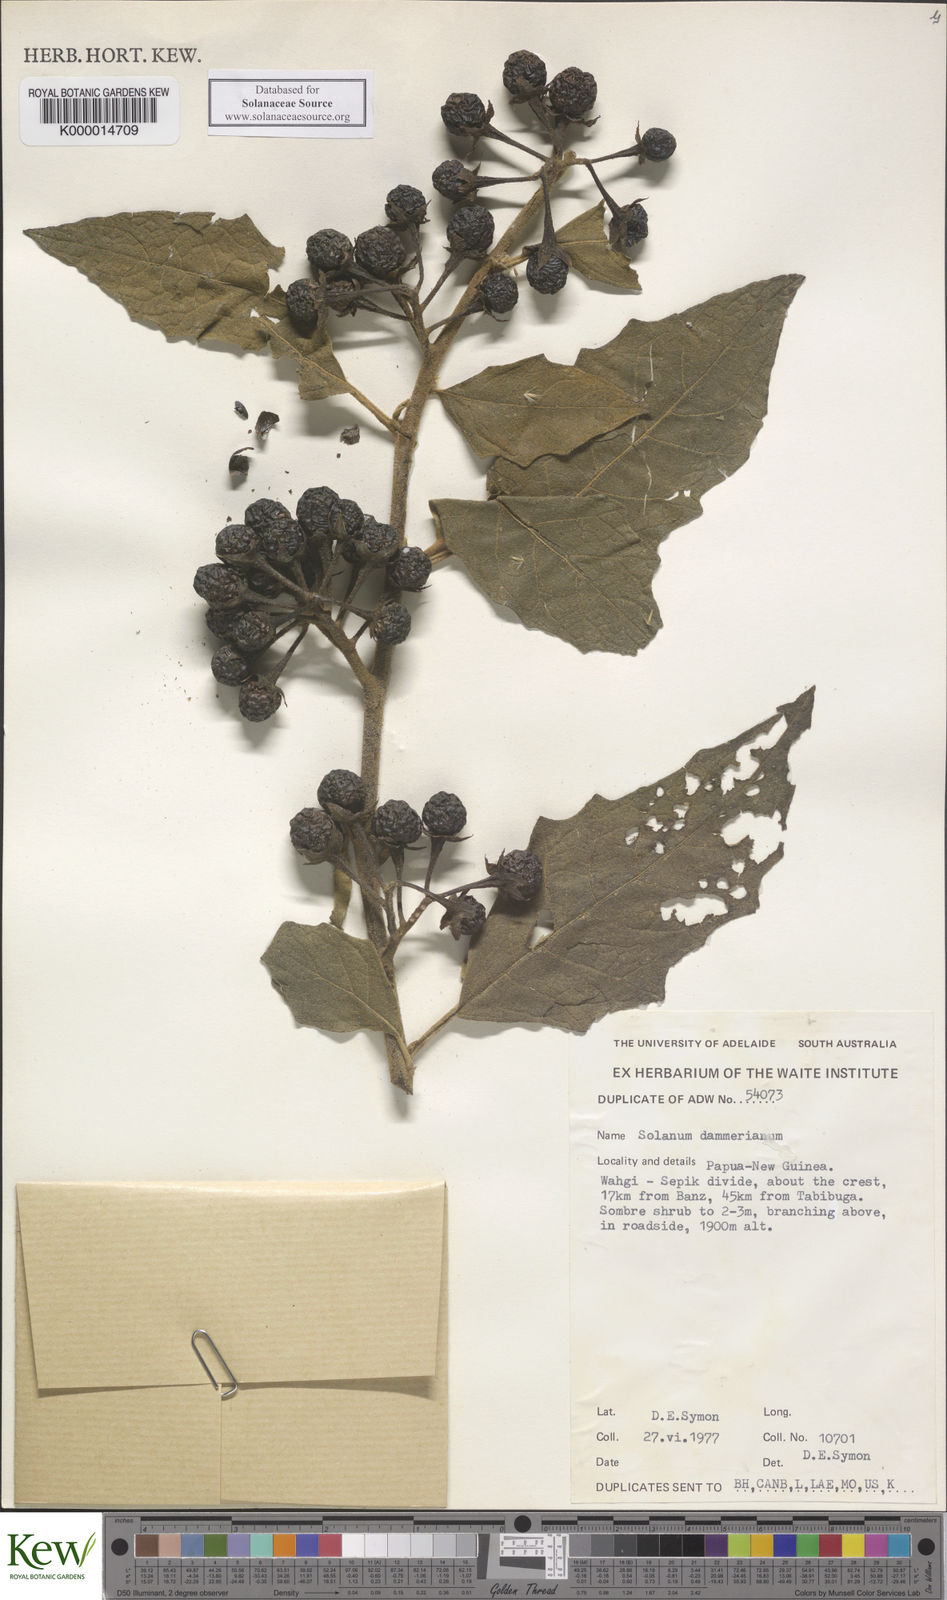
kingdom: Plantae
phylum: Tracheophyta
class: Magnoliopsida
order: Solanales
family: Solanaceae
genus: Solanum
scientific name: Solanum dammerianum
